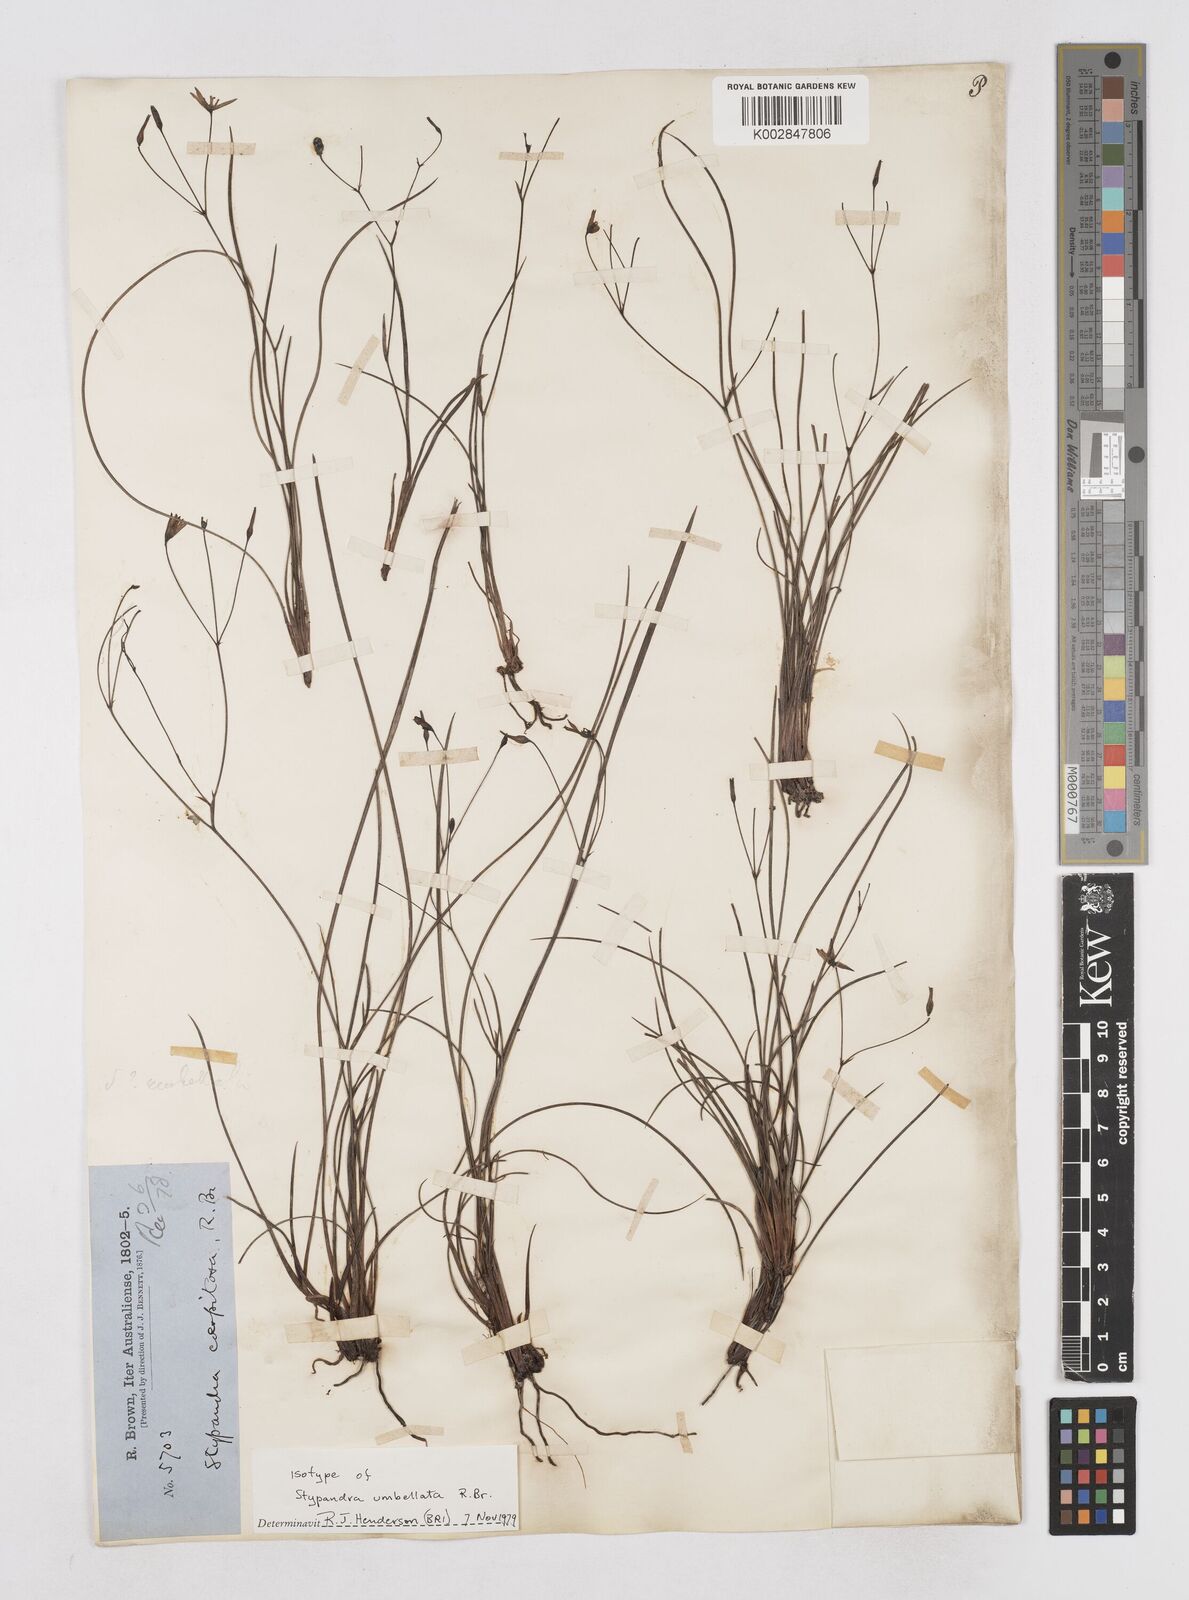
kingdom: Plantae
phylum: Tracheophyta
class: Liliopsida
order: Asparagales
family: Asphodelaceae
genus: Thelionema
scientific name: Thelionema umbellatum
